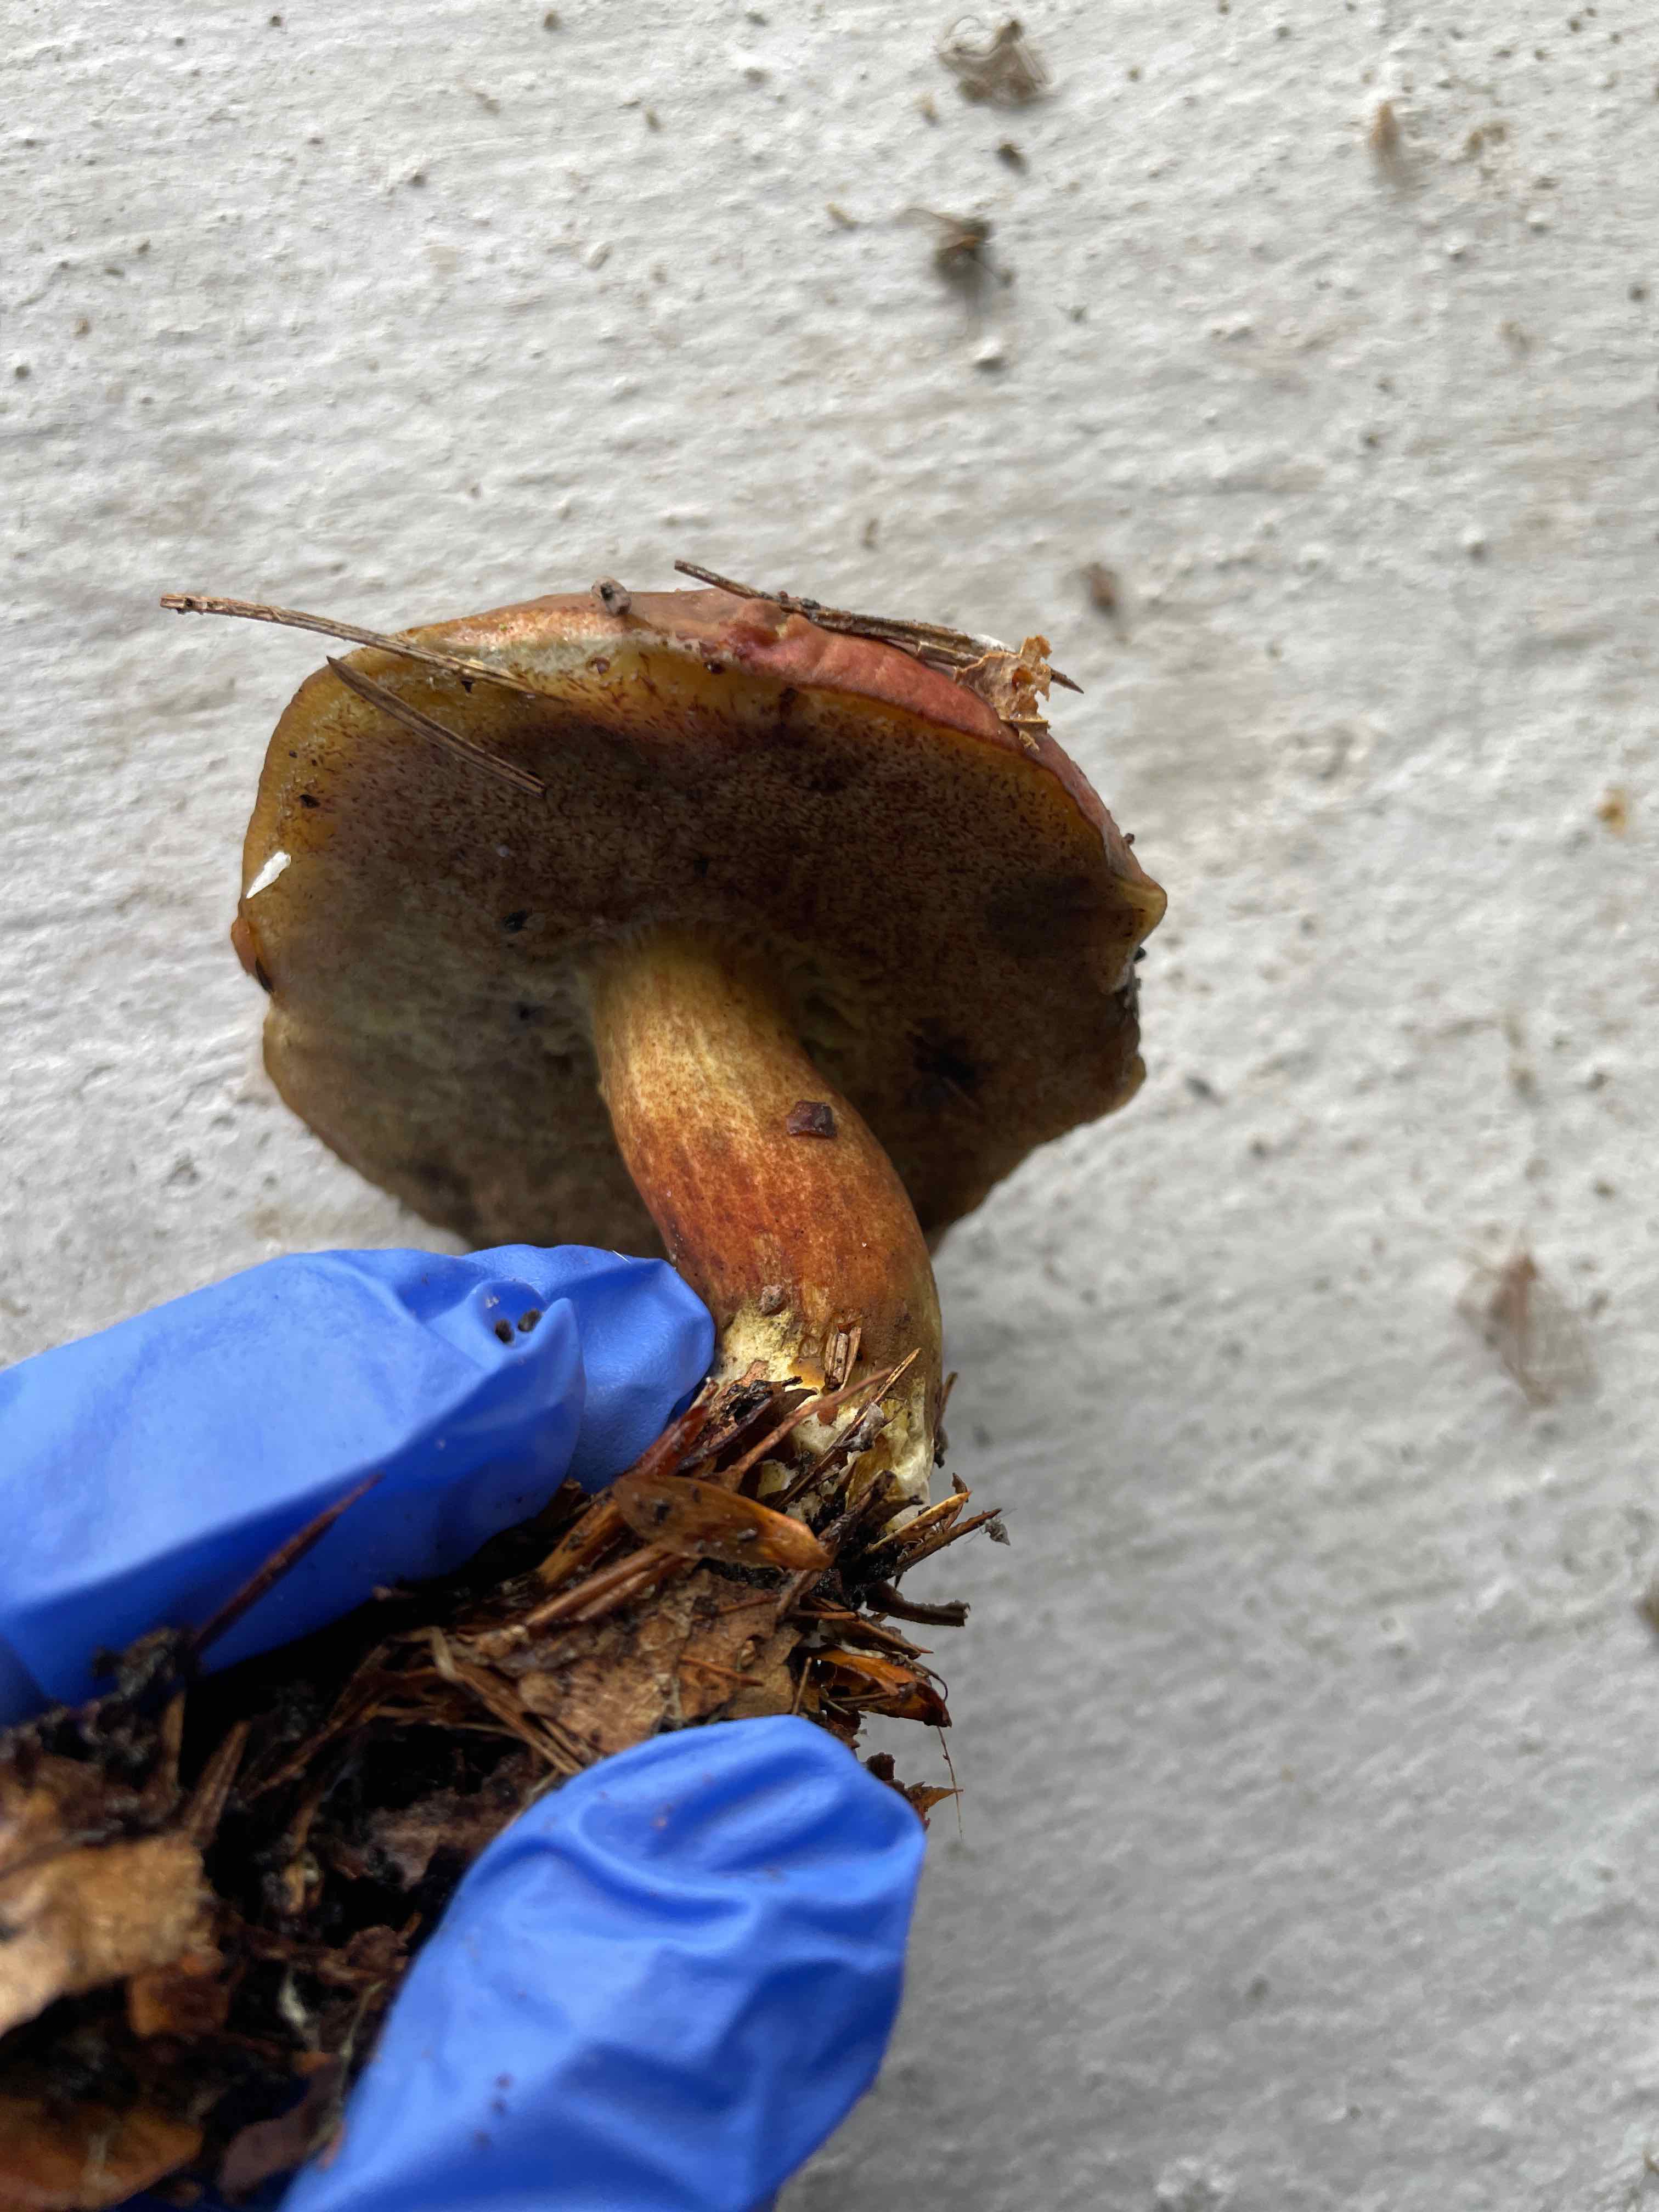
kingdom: Fungi
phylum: Basidiomycota
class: Agaricomycetes
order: Boletales
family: Boletaceae
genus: Xerocomellus
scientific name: Xerocomellus pruinatus
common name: dugget rørhat
